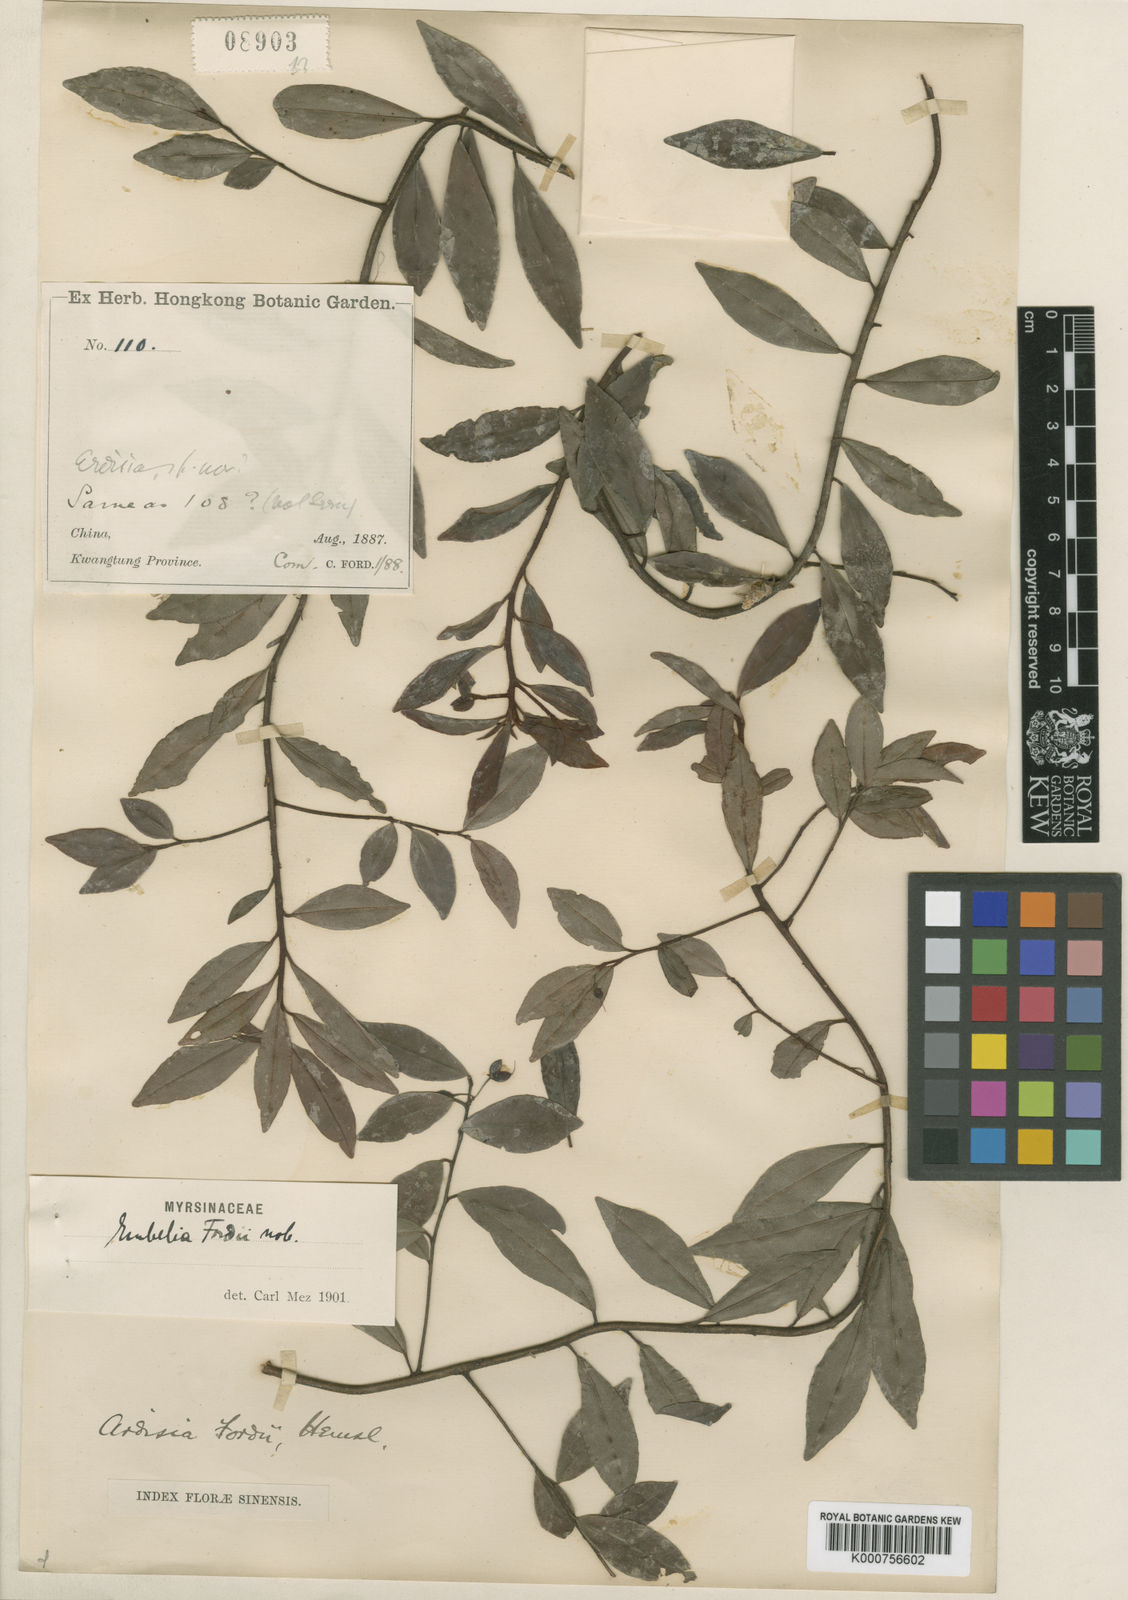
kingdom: Plantae
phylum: Tracheophyta
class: Magnoliopsida
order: Ericales
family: Primulaceae
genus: Ardisia
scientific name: Ardisia fordii
